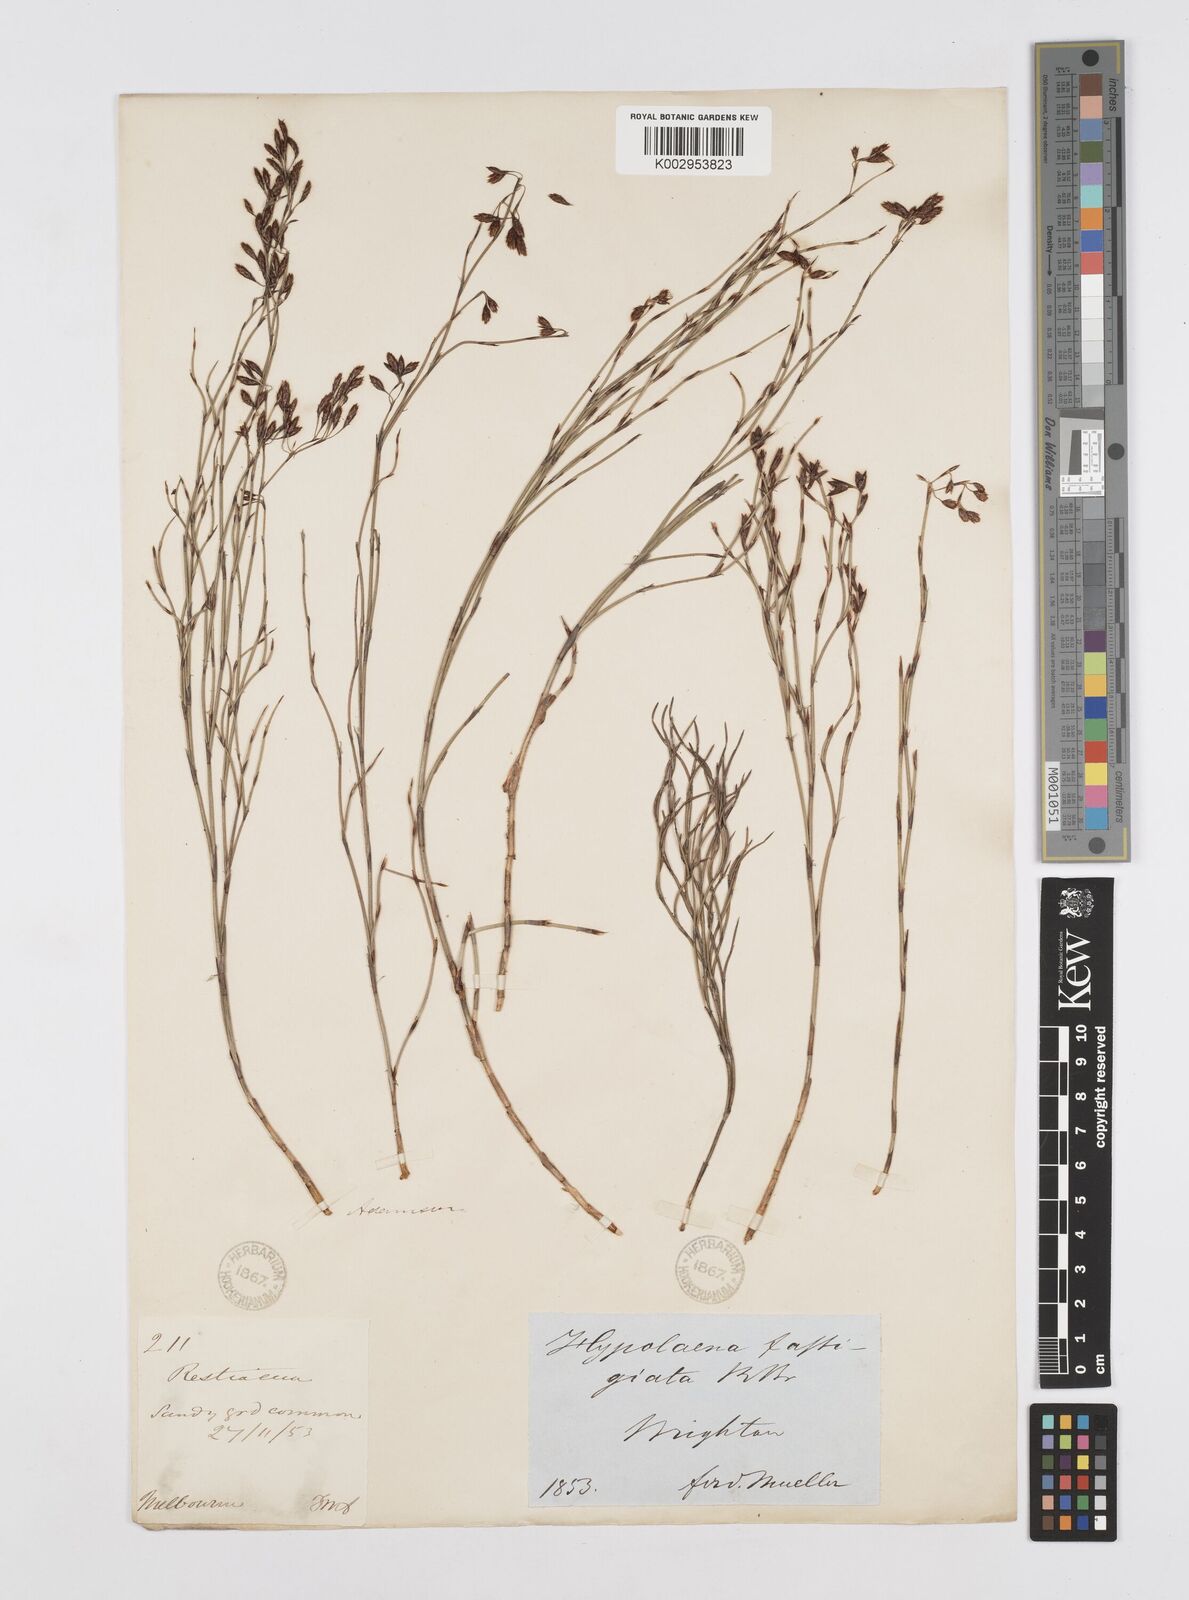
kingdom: Plantae
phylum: Tracheophyta
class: Liliopsida
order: Poales
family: Restionaceae
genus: Hypolaena
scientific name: Hypolaena fastigiata
